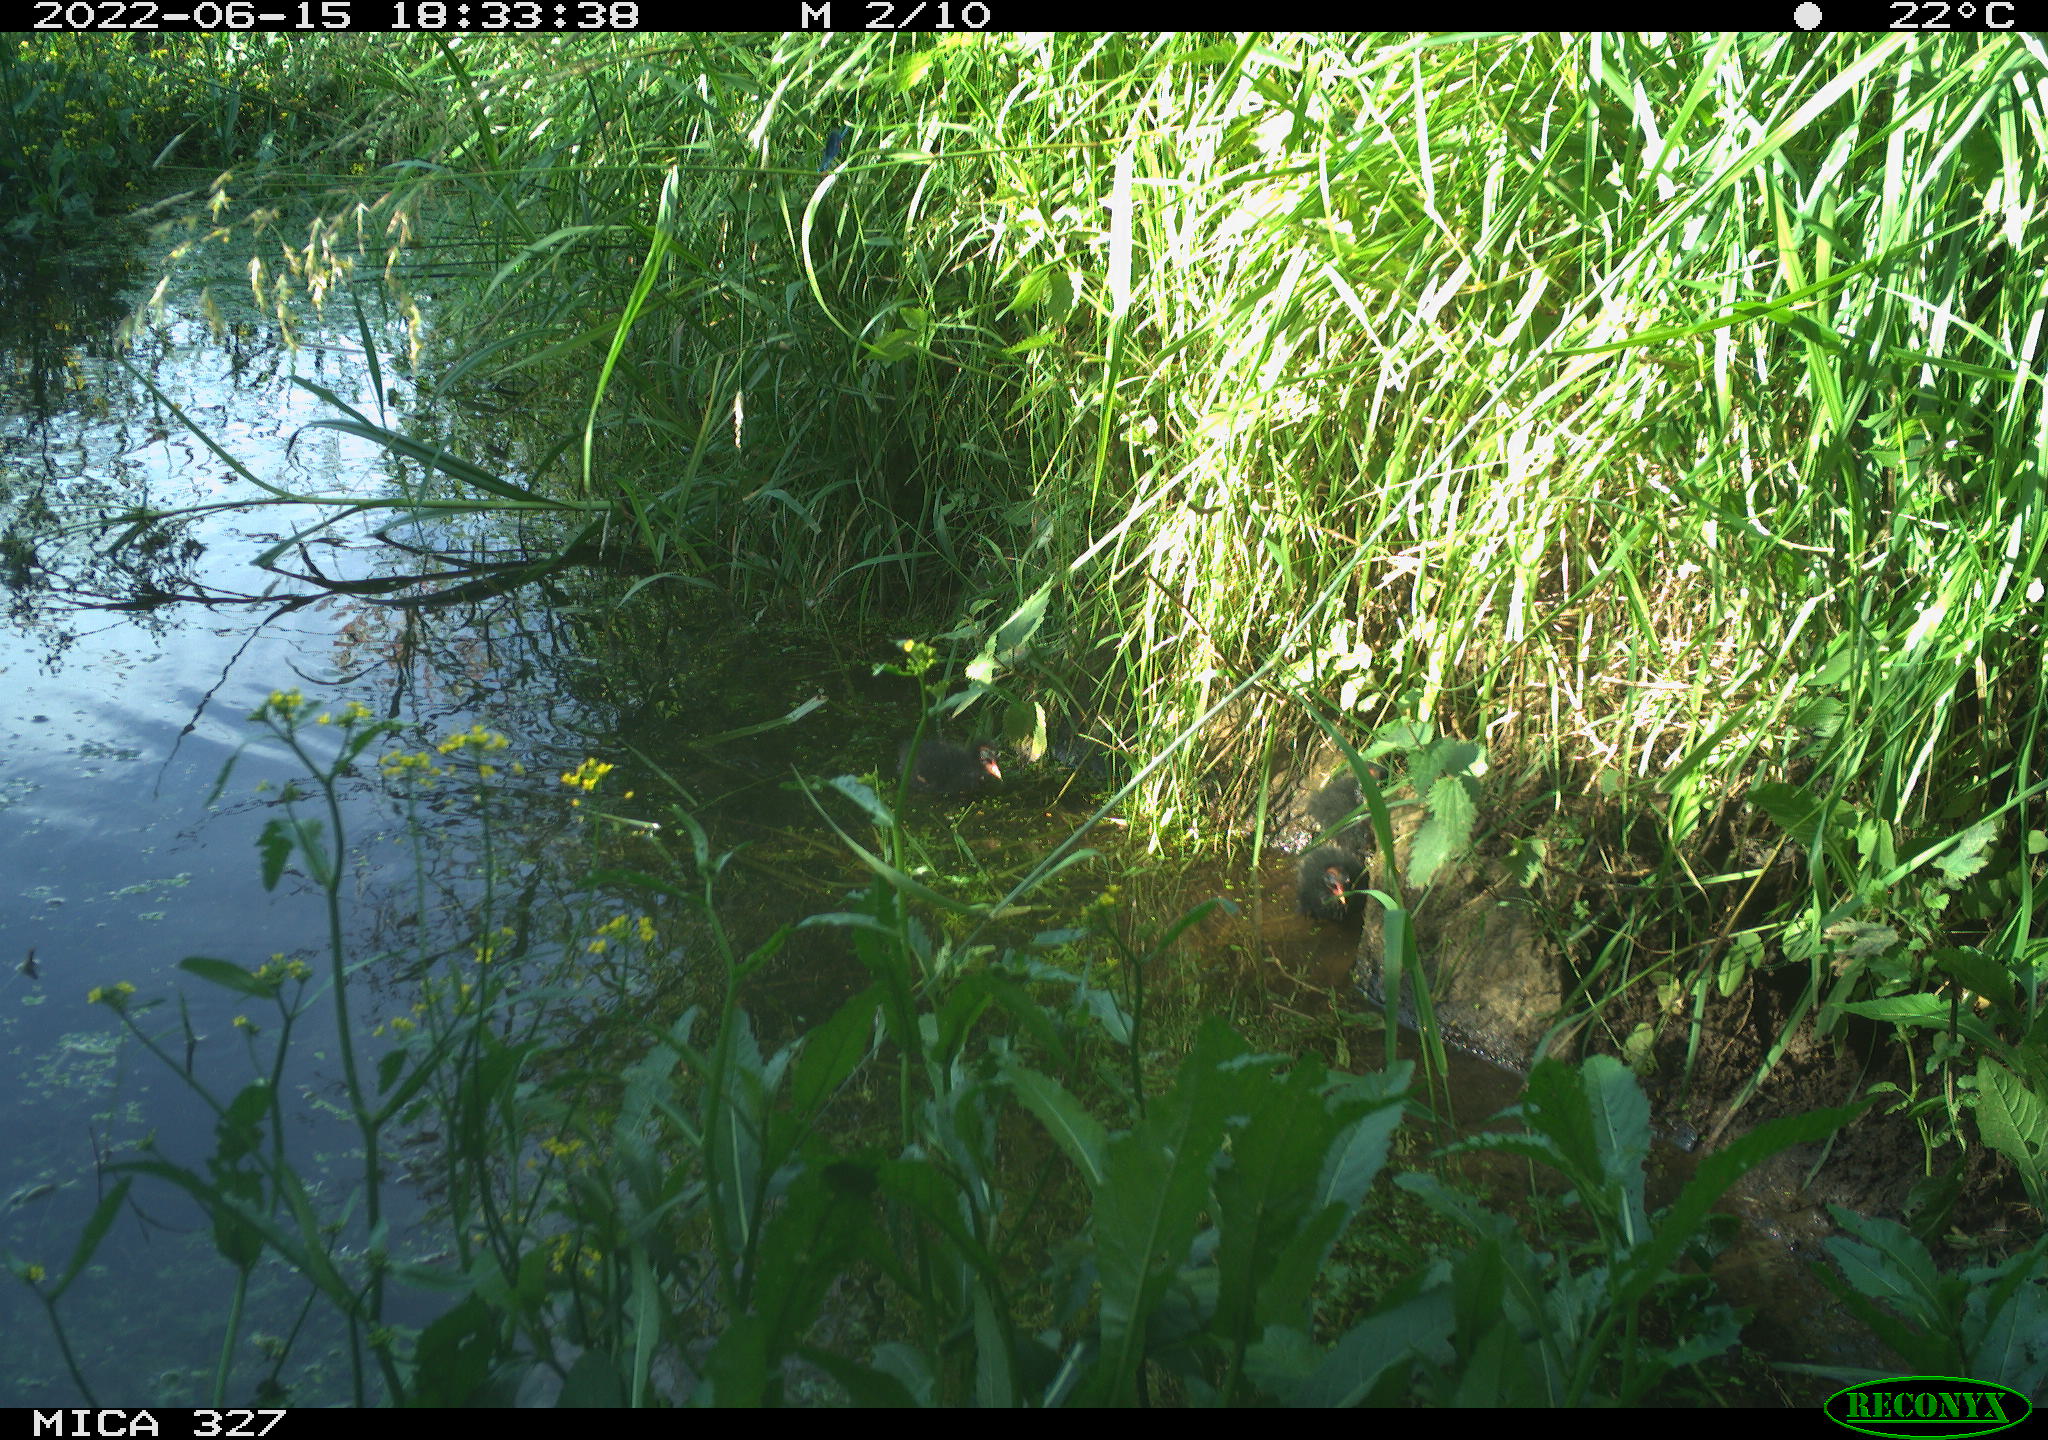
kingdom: Animalia
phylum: Chordata
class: Aves
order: Gruiformes
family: Rallidae
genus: Gallinula
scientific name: Gallinula chloropus
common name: Common moorhen
